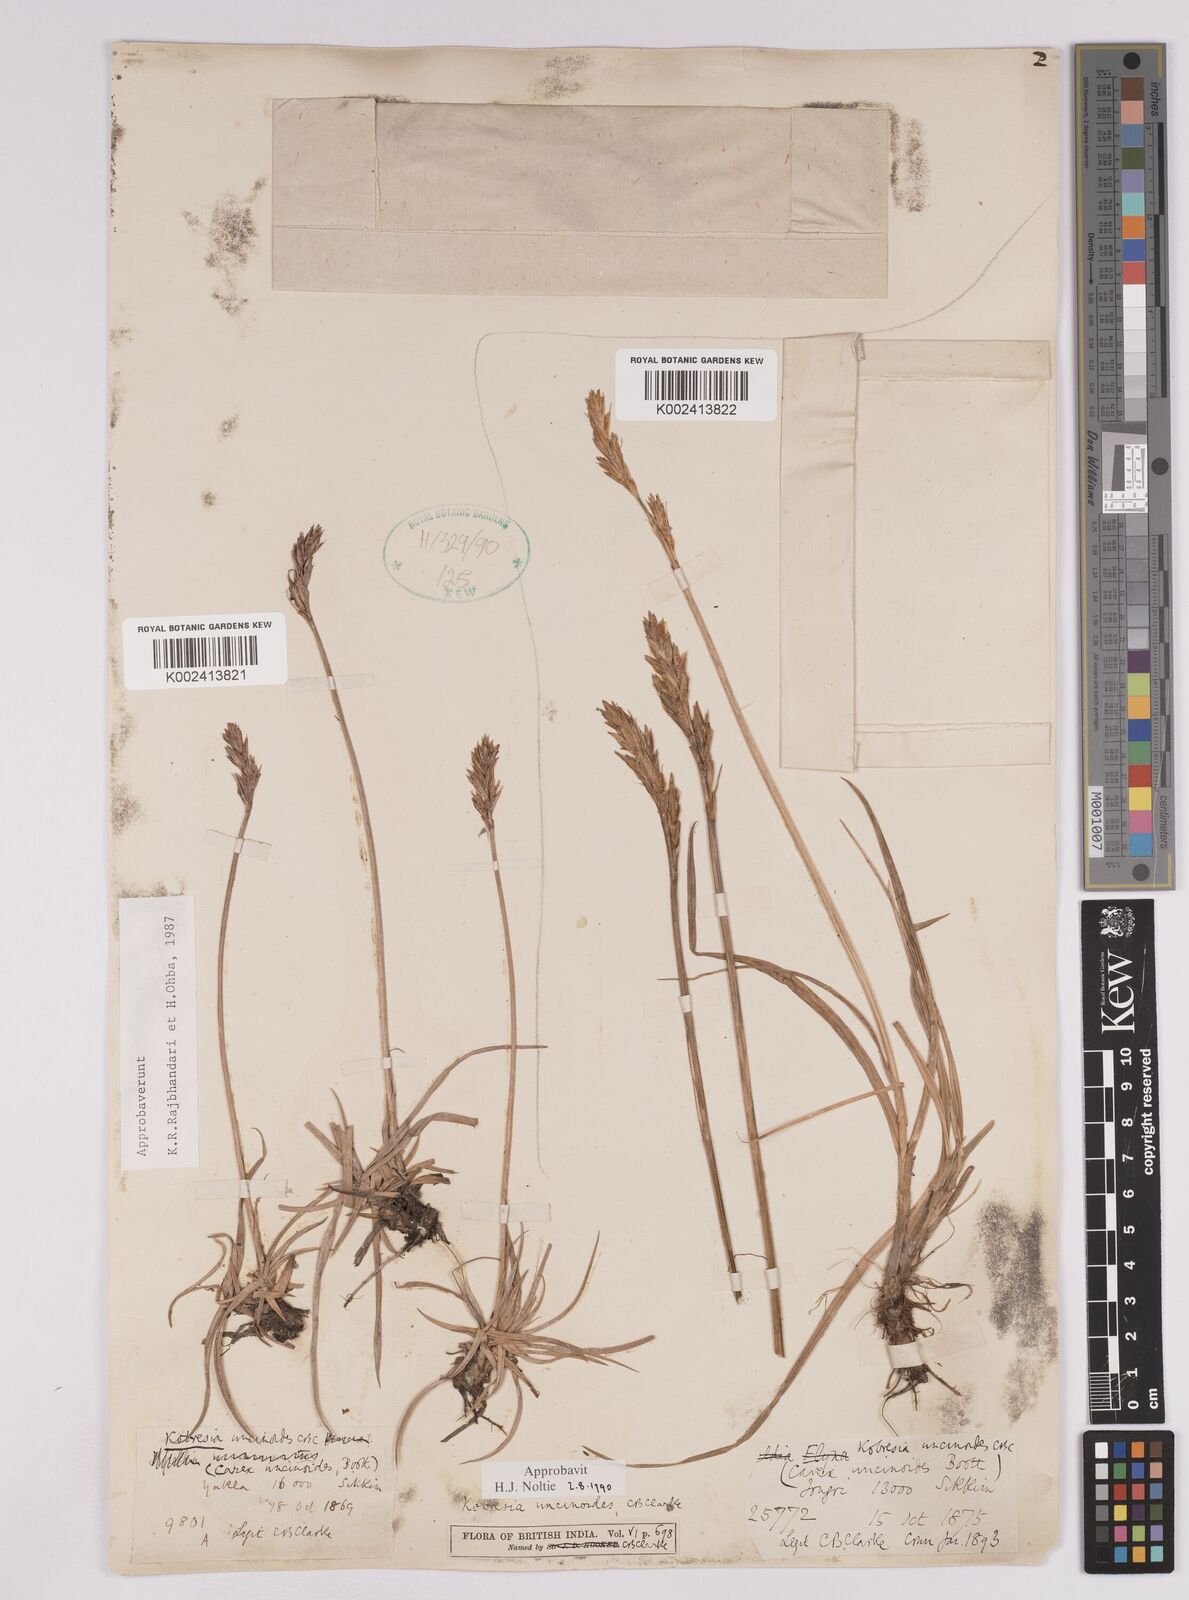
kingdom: Plantae
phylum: Tracheophyta
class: Liliopsida
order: Poales
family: Cyperaceae
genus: Carex
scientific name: Carex uncinioides
